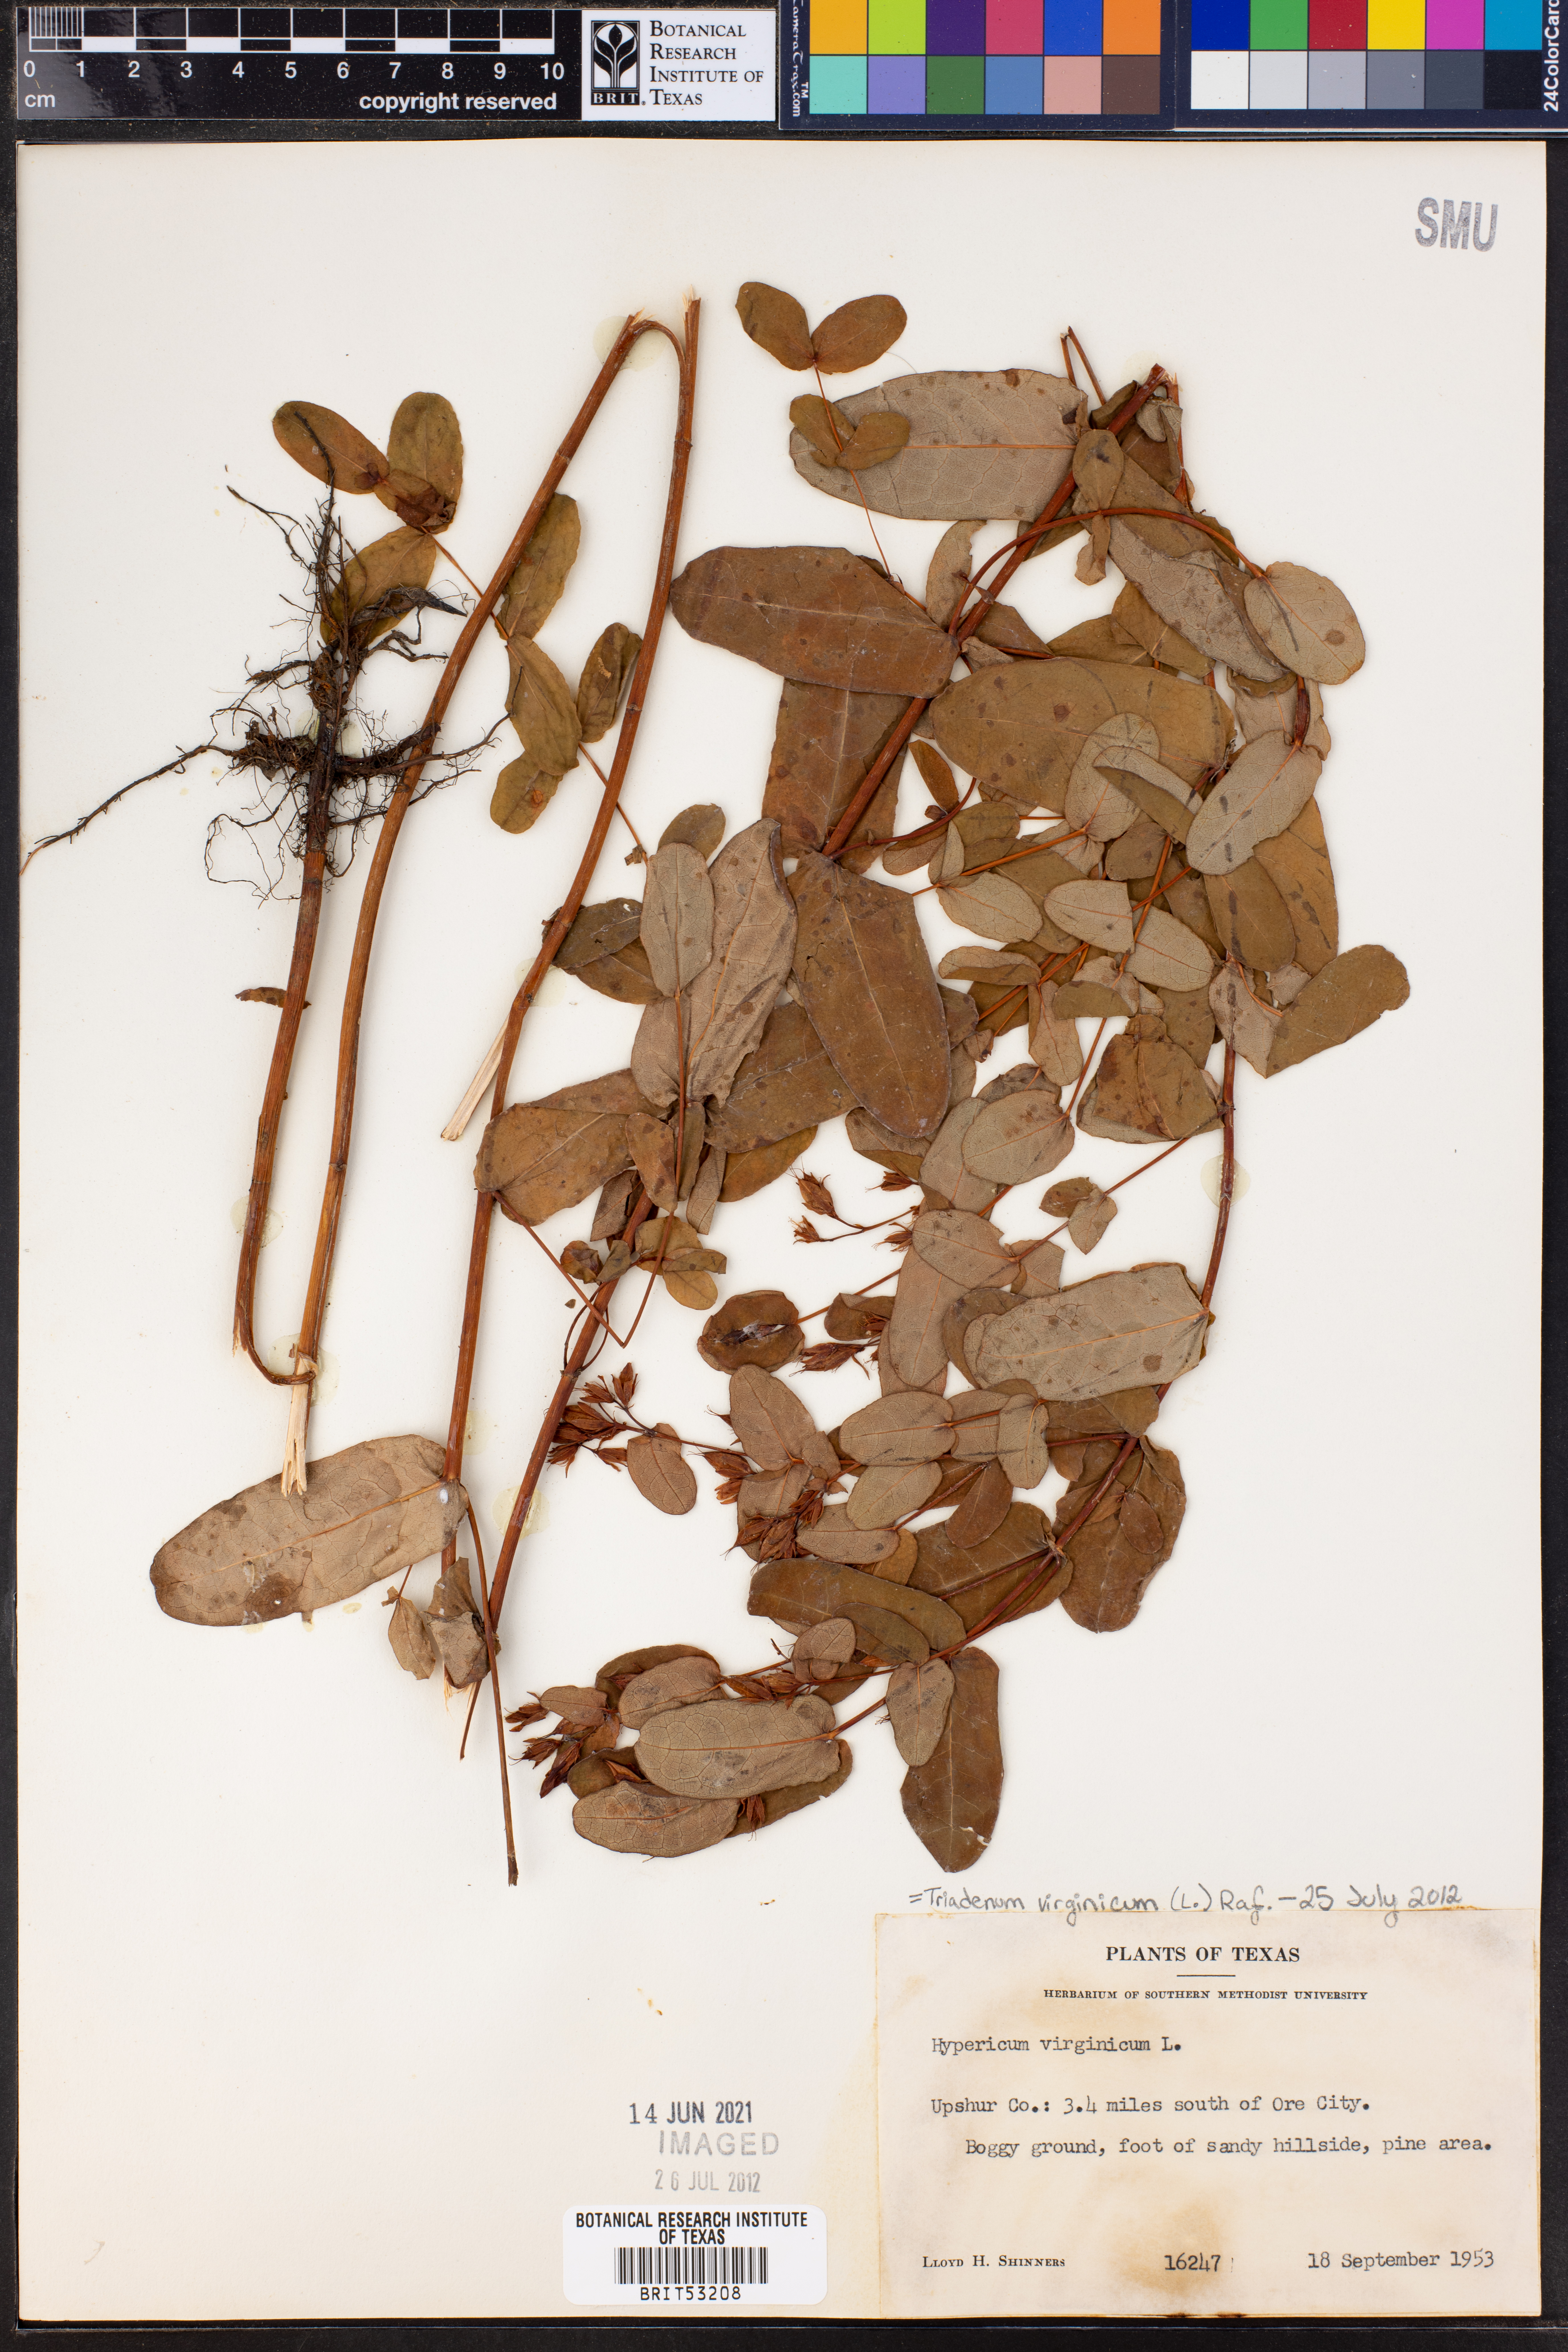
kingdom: Plantae
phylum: Tracheophyta
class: Magnoliopsida
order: Malpighiales
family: Hypericaceae
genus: Triadenum
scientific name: Triadenum virginicum
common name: Marsh st. john's-wort
